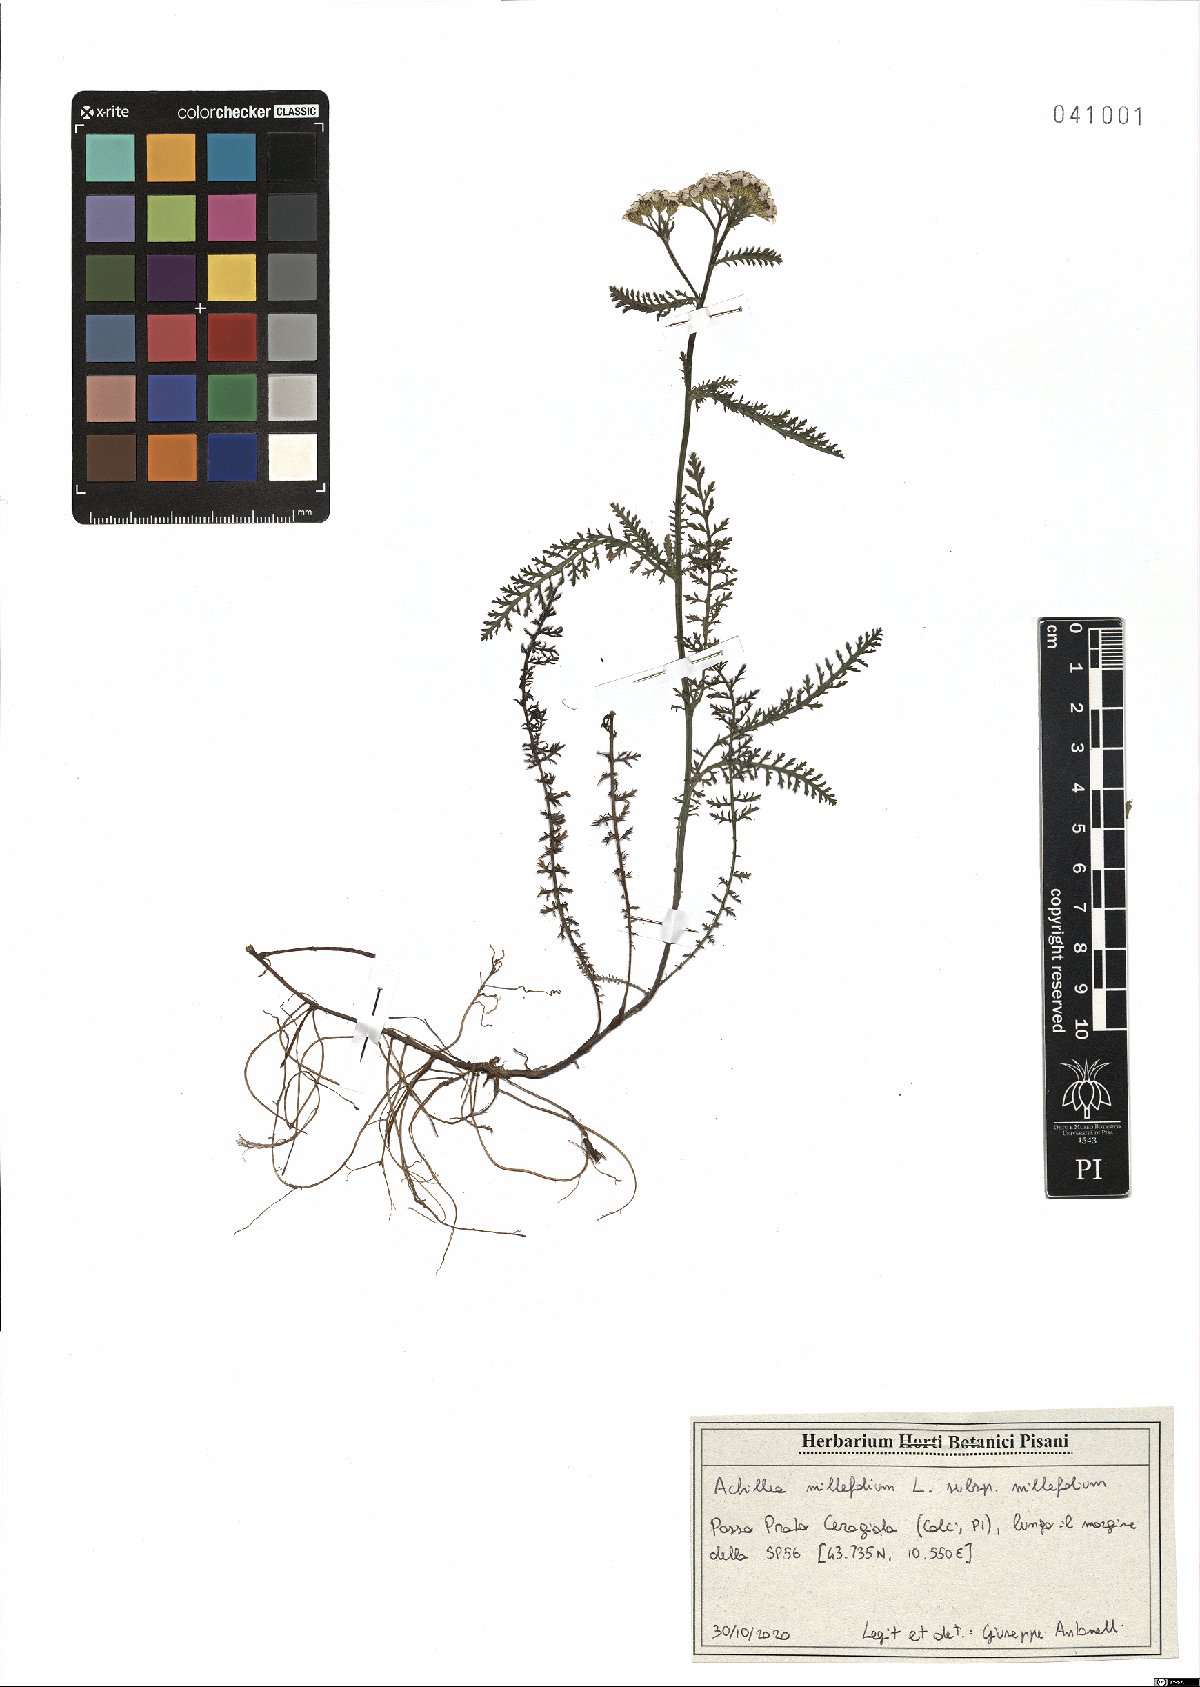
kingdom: Plantae
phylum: Tracheophyta
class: Magnoliopsida
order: Asterales
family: Asteraceae
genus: Achillea
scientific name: Achillea millefolium
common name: Yarrow
